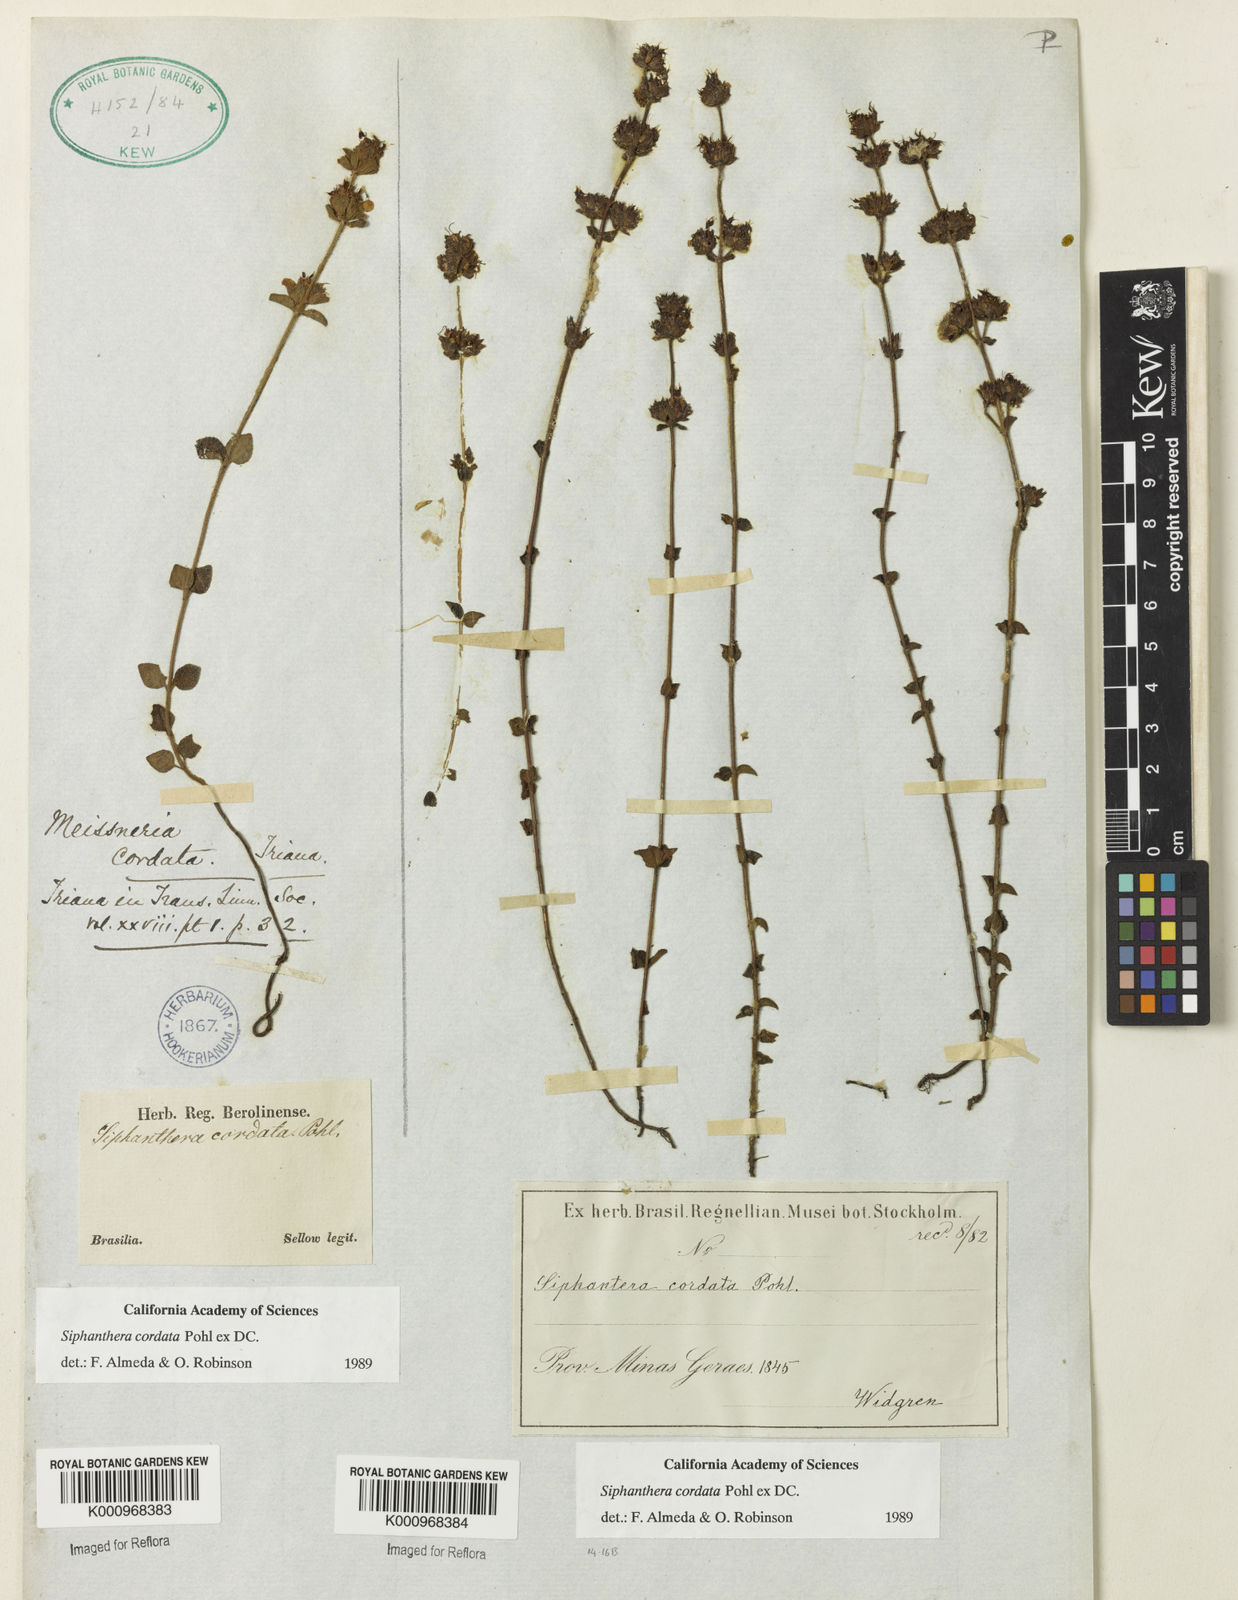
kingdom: Plantae
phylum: Tracheophyta
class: Magnoliopsida
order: Myrtales
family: Melastomataceae
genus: Siphanthera
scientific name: Siphanthera
